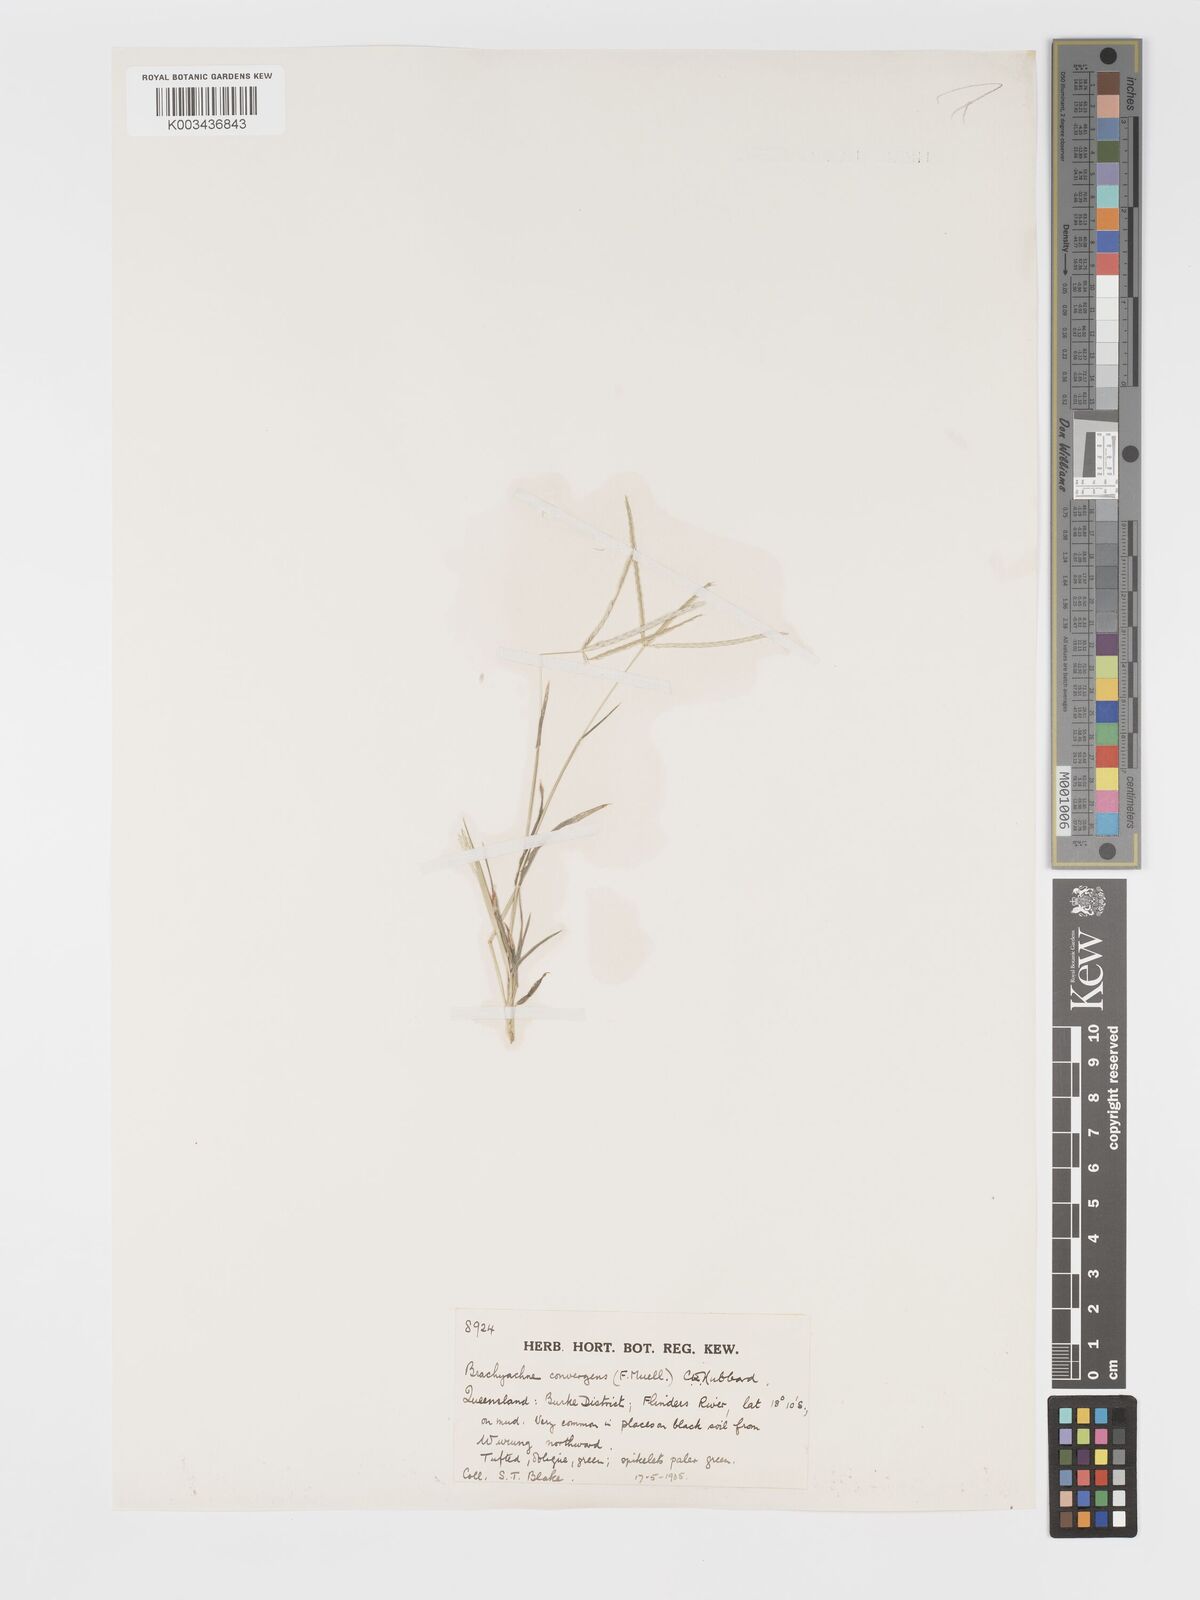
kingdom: Plantae
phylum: Tracheophyta
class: Liliopsida
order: Poales
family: Poaceae
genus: Cynodon
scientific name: Cynodon convergens
